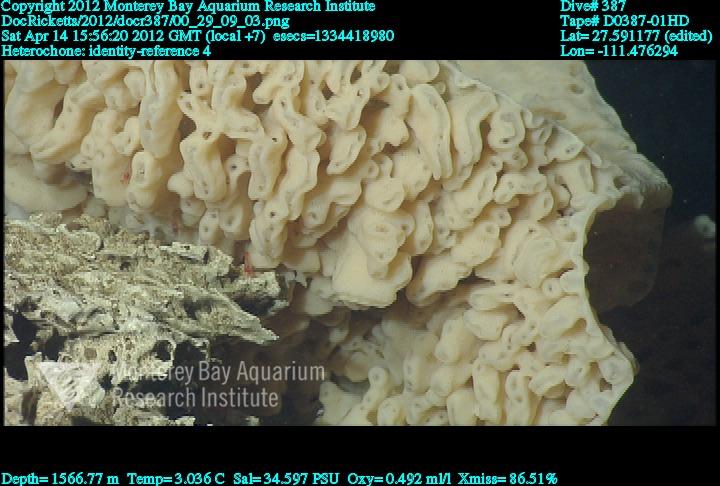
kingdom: Animalia
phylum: Porifera
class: Hexactinellida
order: Sceptrulophora
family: Aphrocallistidae
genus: Heterochone
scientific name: Heterochone
